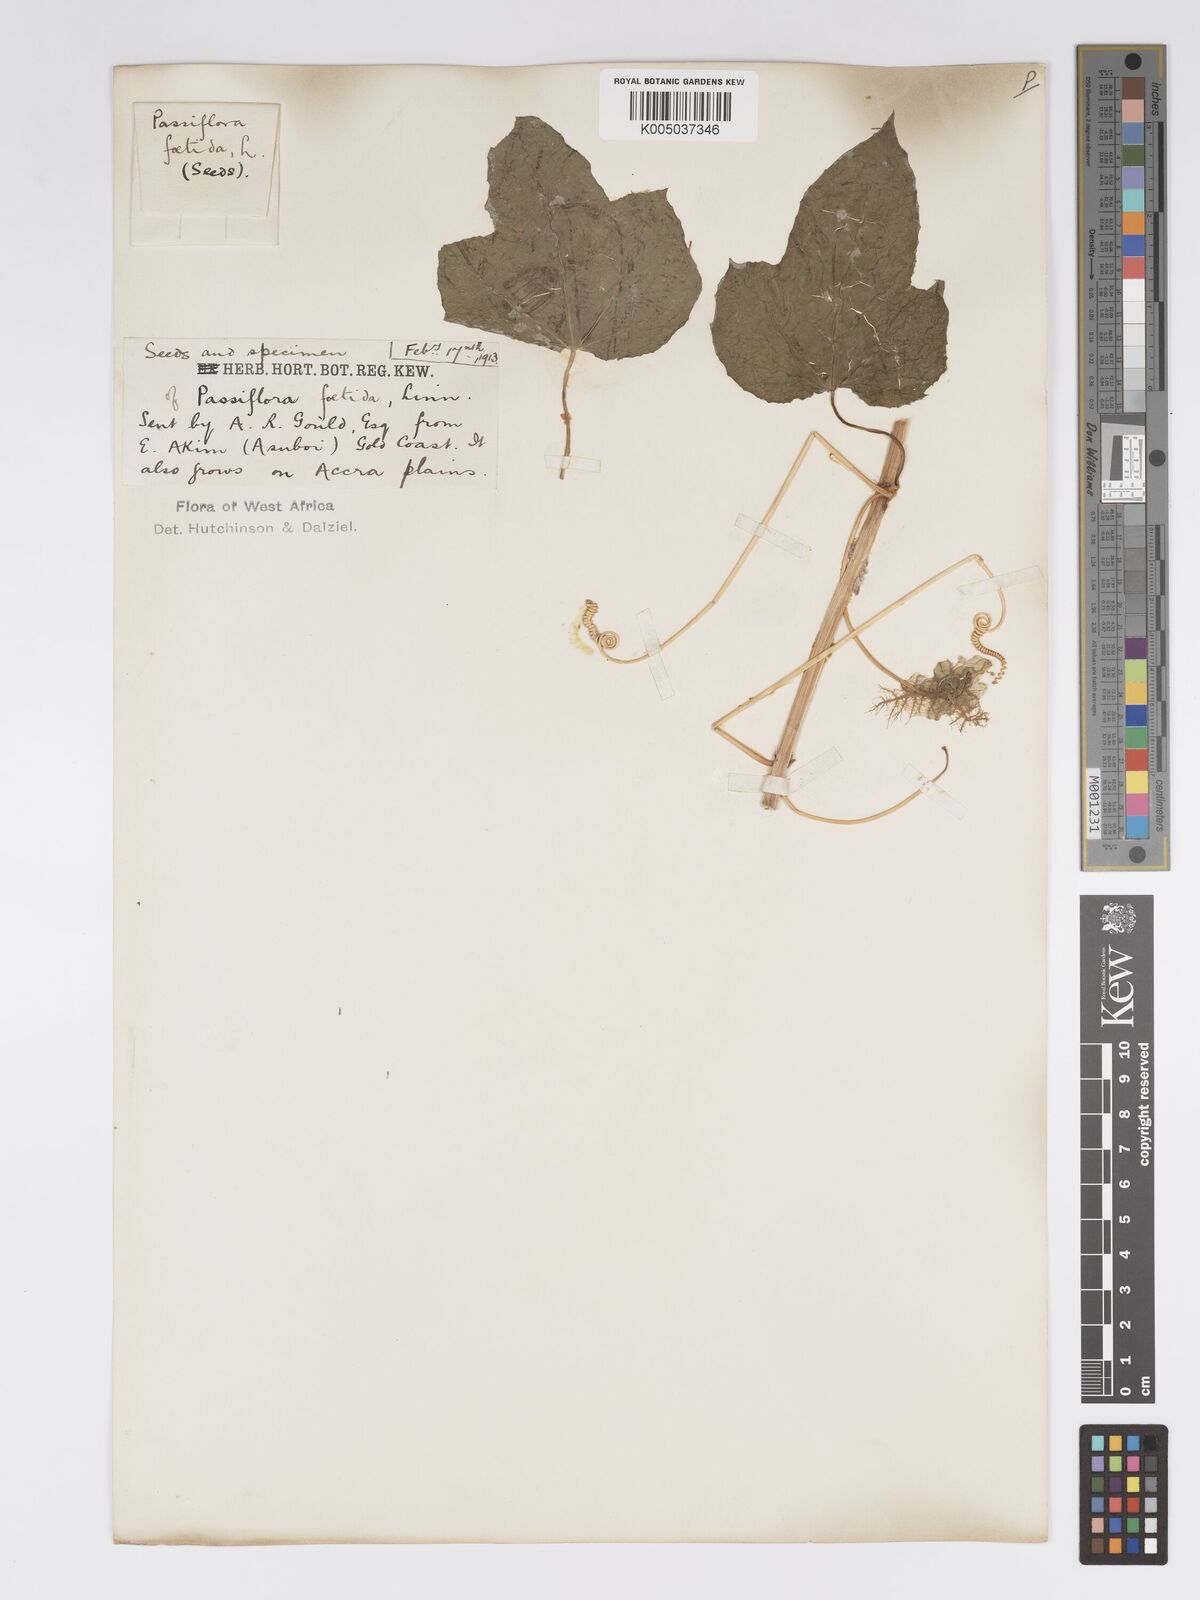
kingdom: Plantae
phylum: Tracheophyta
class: Magnoliopsida
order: Malpighiales
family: Passifloraceae
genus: Passiflora
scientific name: Passiflora foetida
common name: Fetid passionflower
